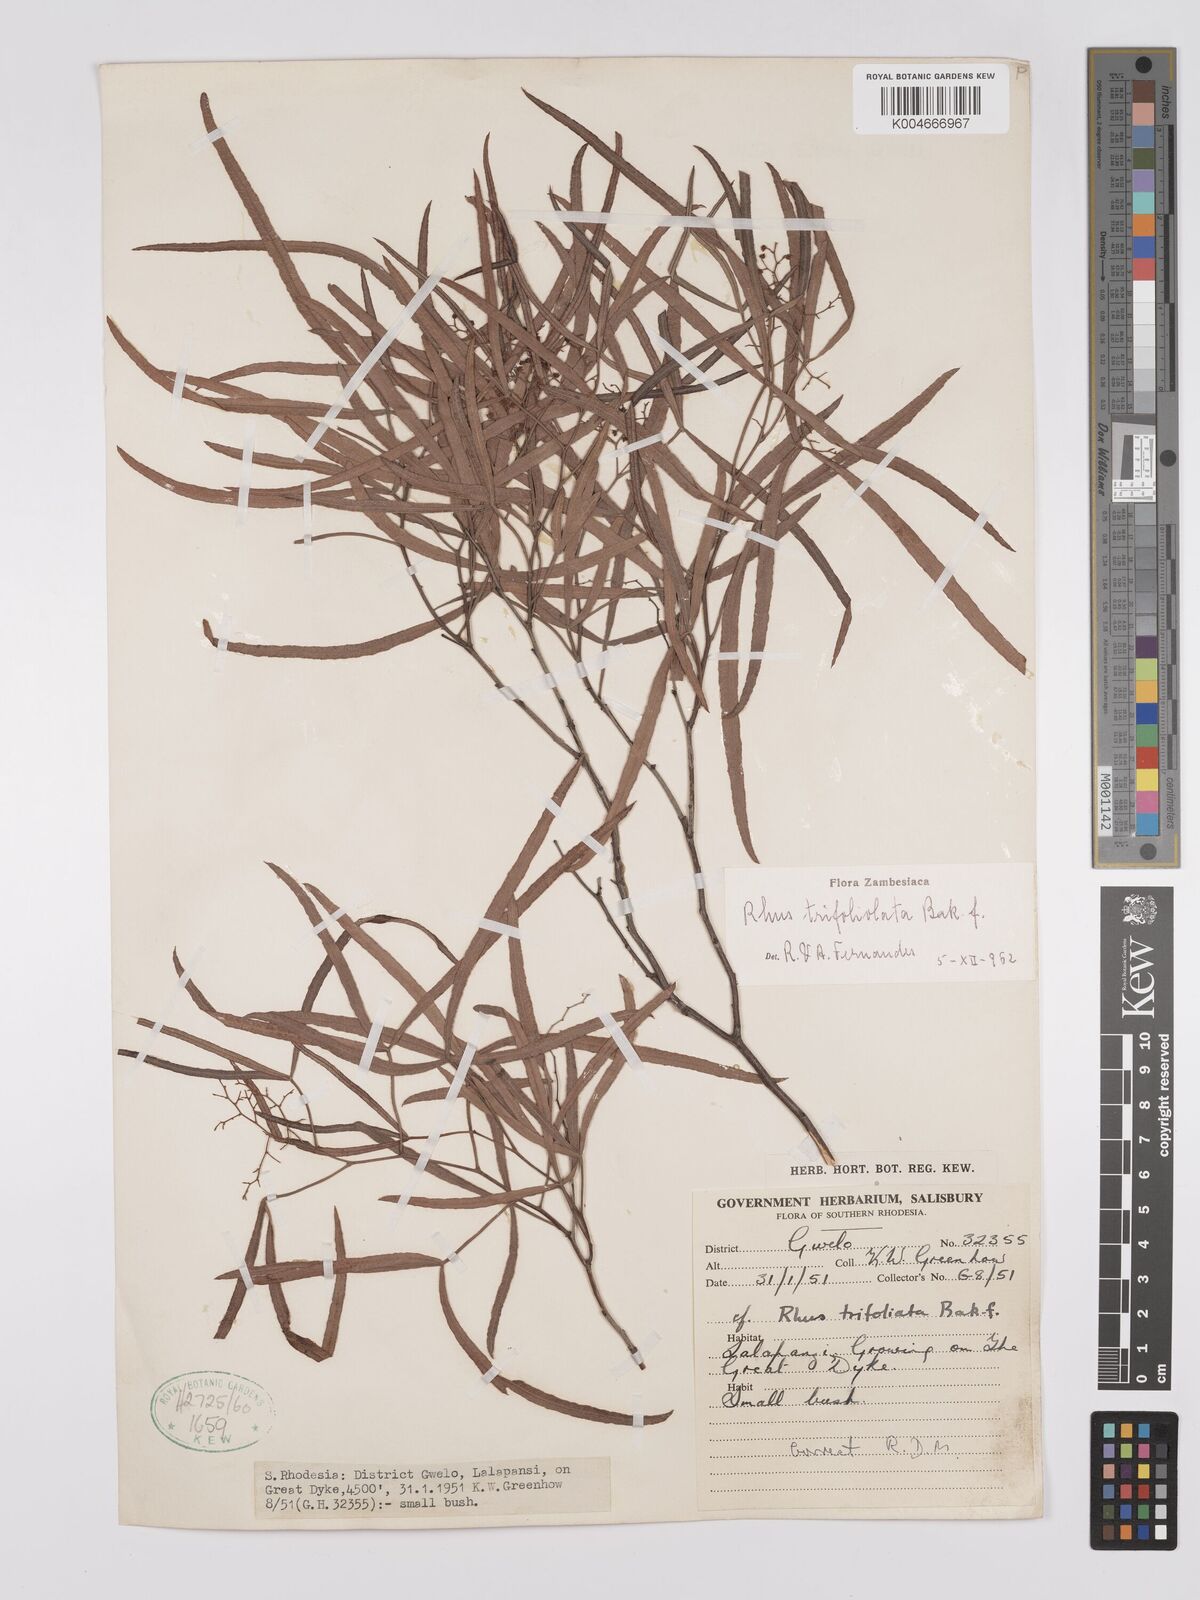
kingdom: Plantae
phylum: Tracheophyta
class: Magnoliopsida
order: Sapindales
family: Anacardiaceae
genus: Searsia
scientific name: Searsia magalismontana
